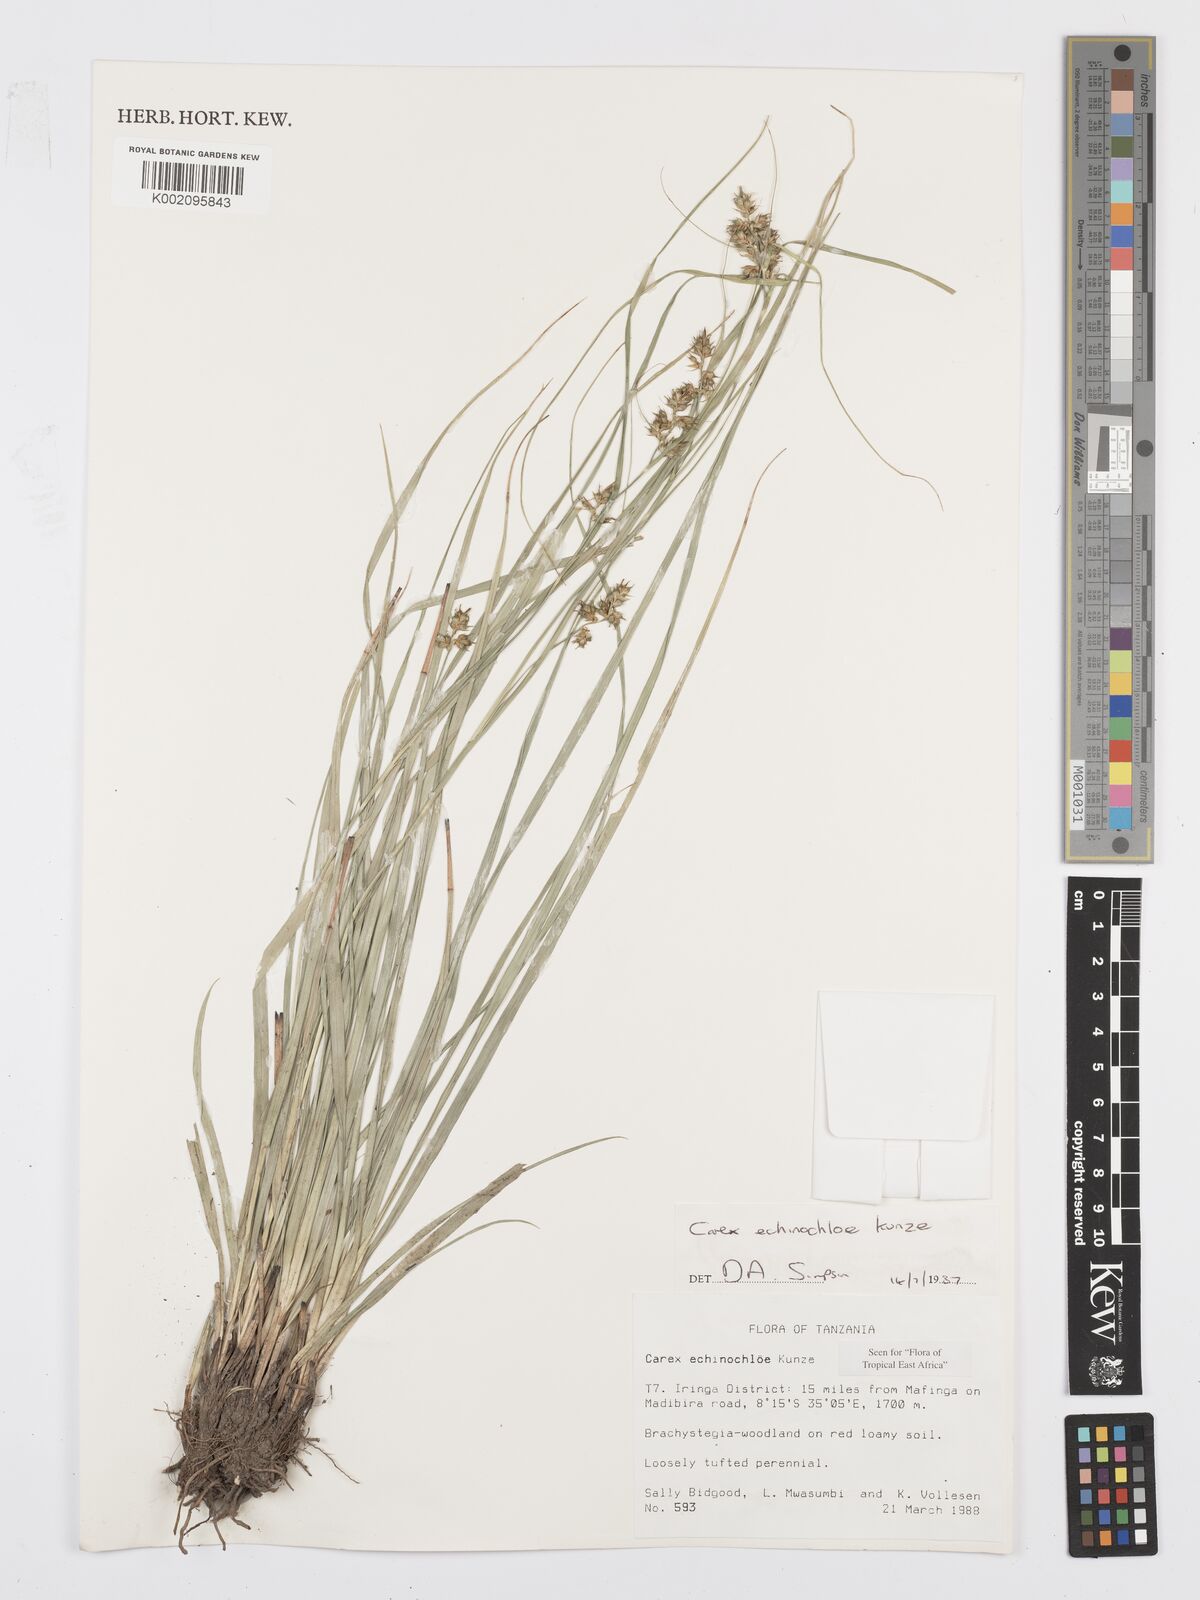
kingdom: Plantae
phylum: Tracheophyta
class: Liliopsida
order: Poales
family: Cyperaceae
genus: Carex
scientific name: Carex echinochloe
